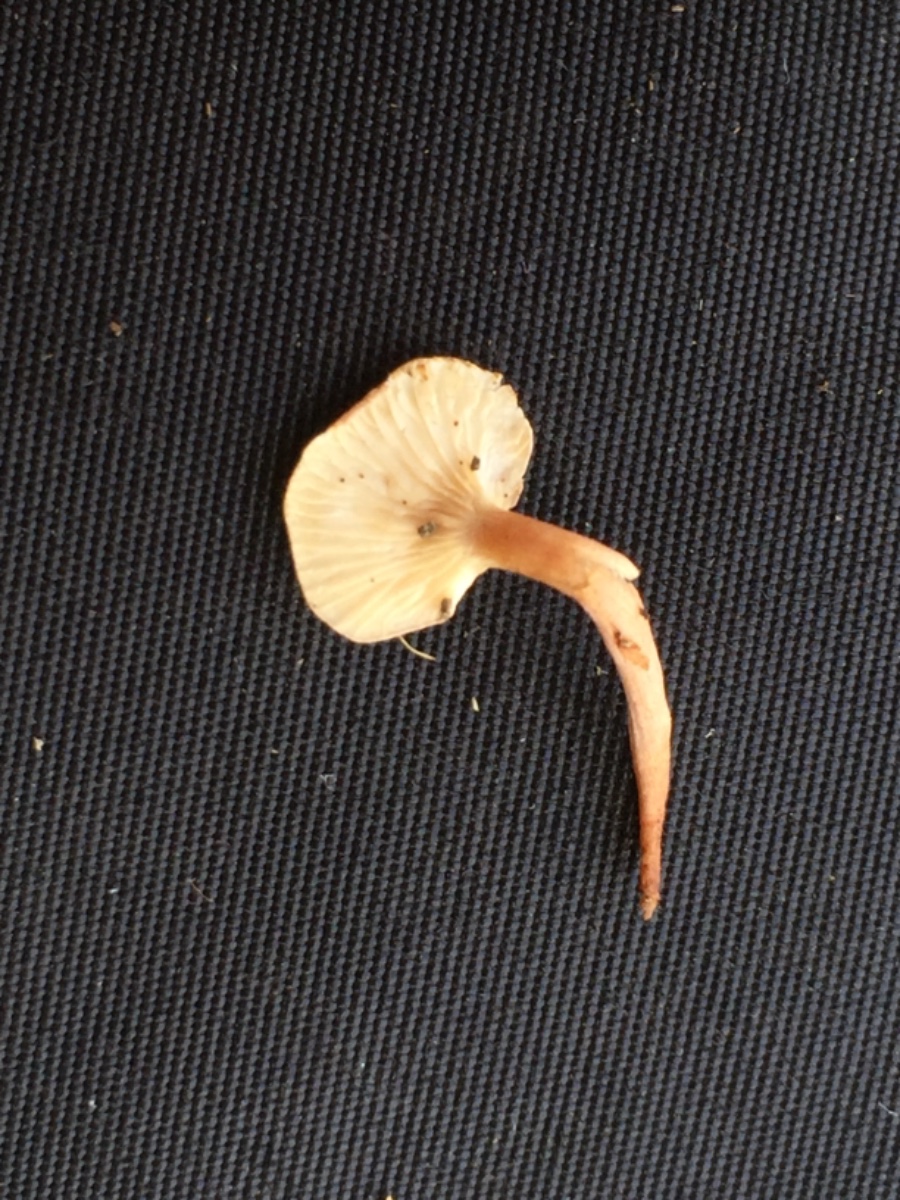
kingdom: Fungi
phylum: Basidiomycota
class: Agaricomycetes
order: Agaricales
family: Lyophyllaceae
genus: Calocybe
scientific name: Calocybe carnea
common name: rosa fagerhat
